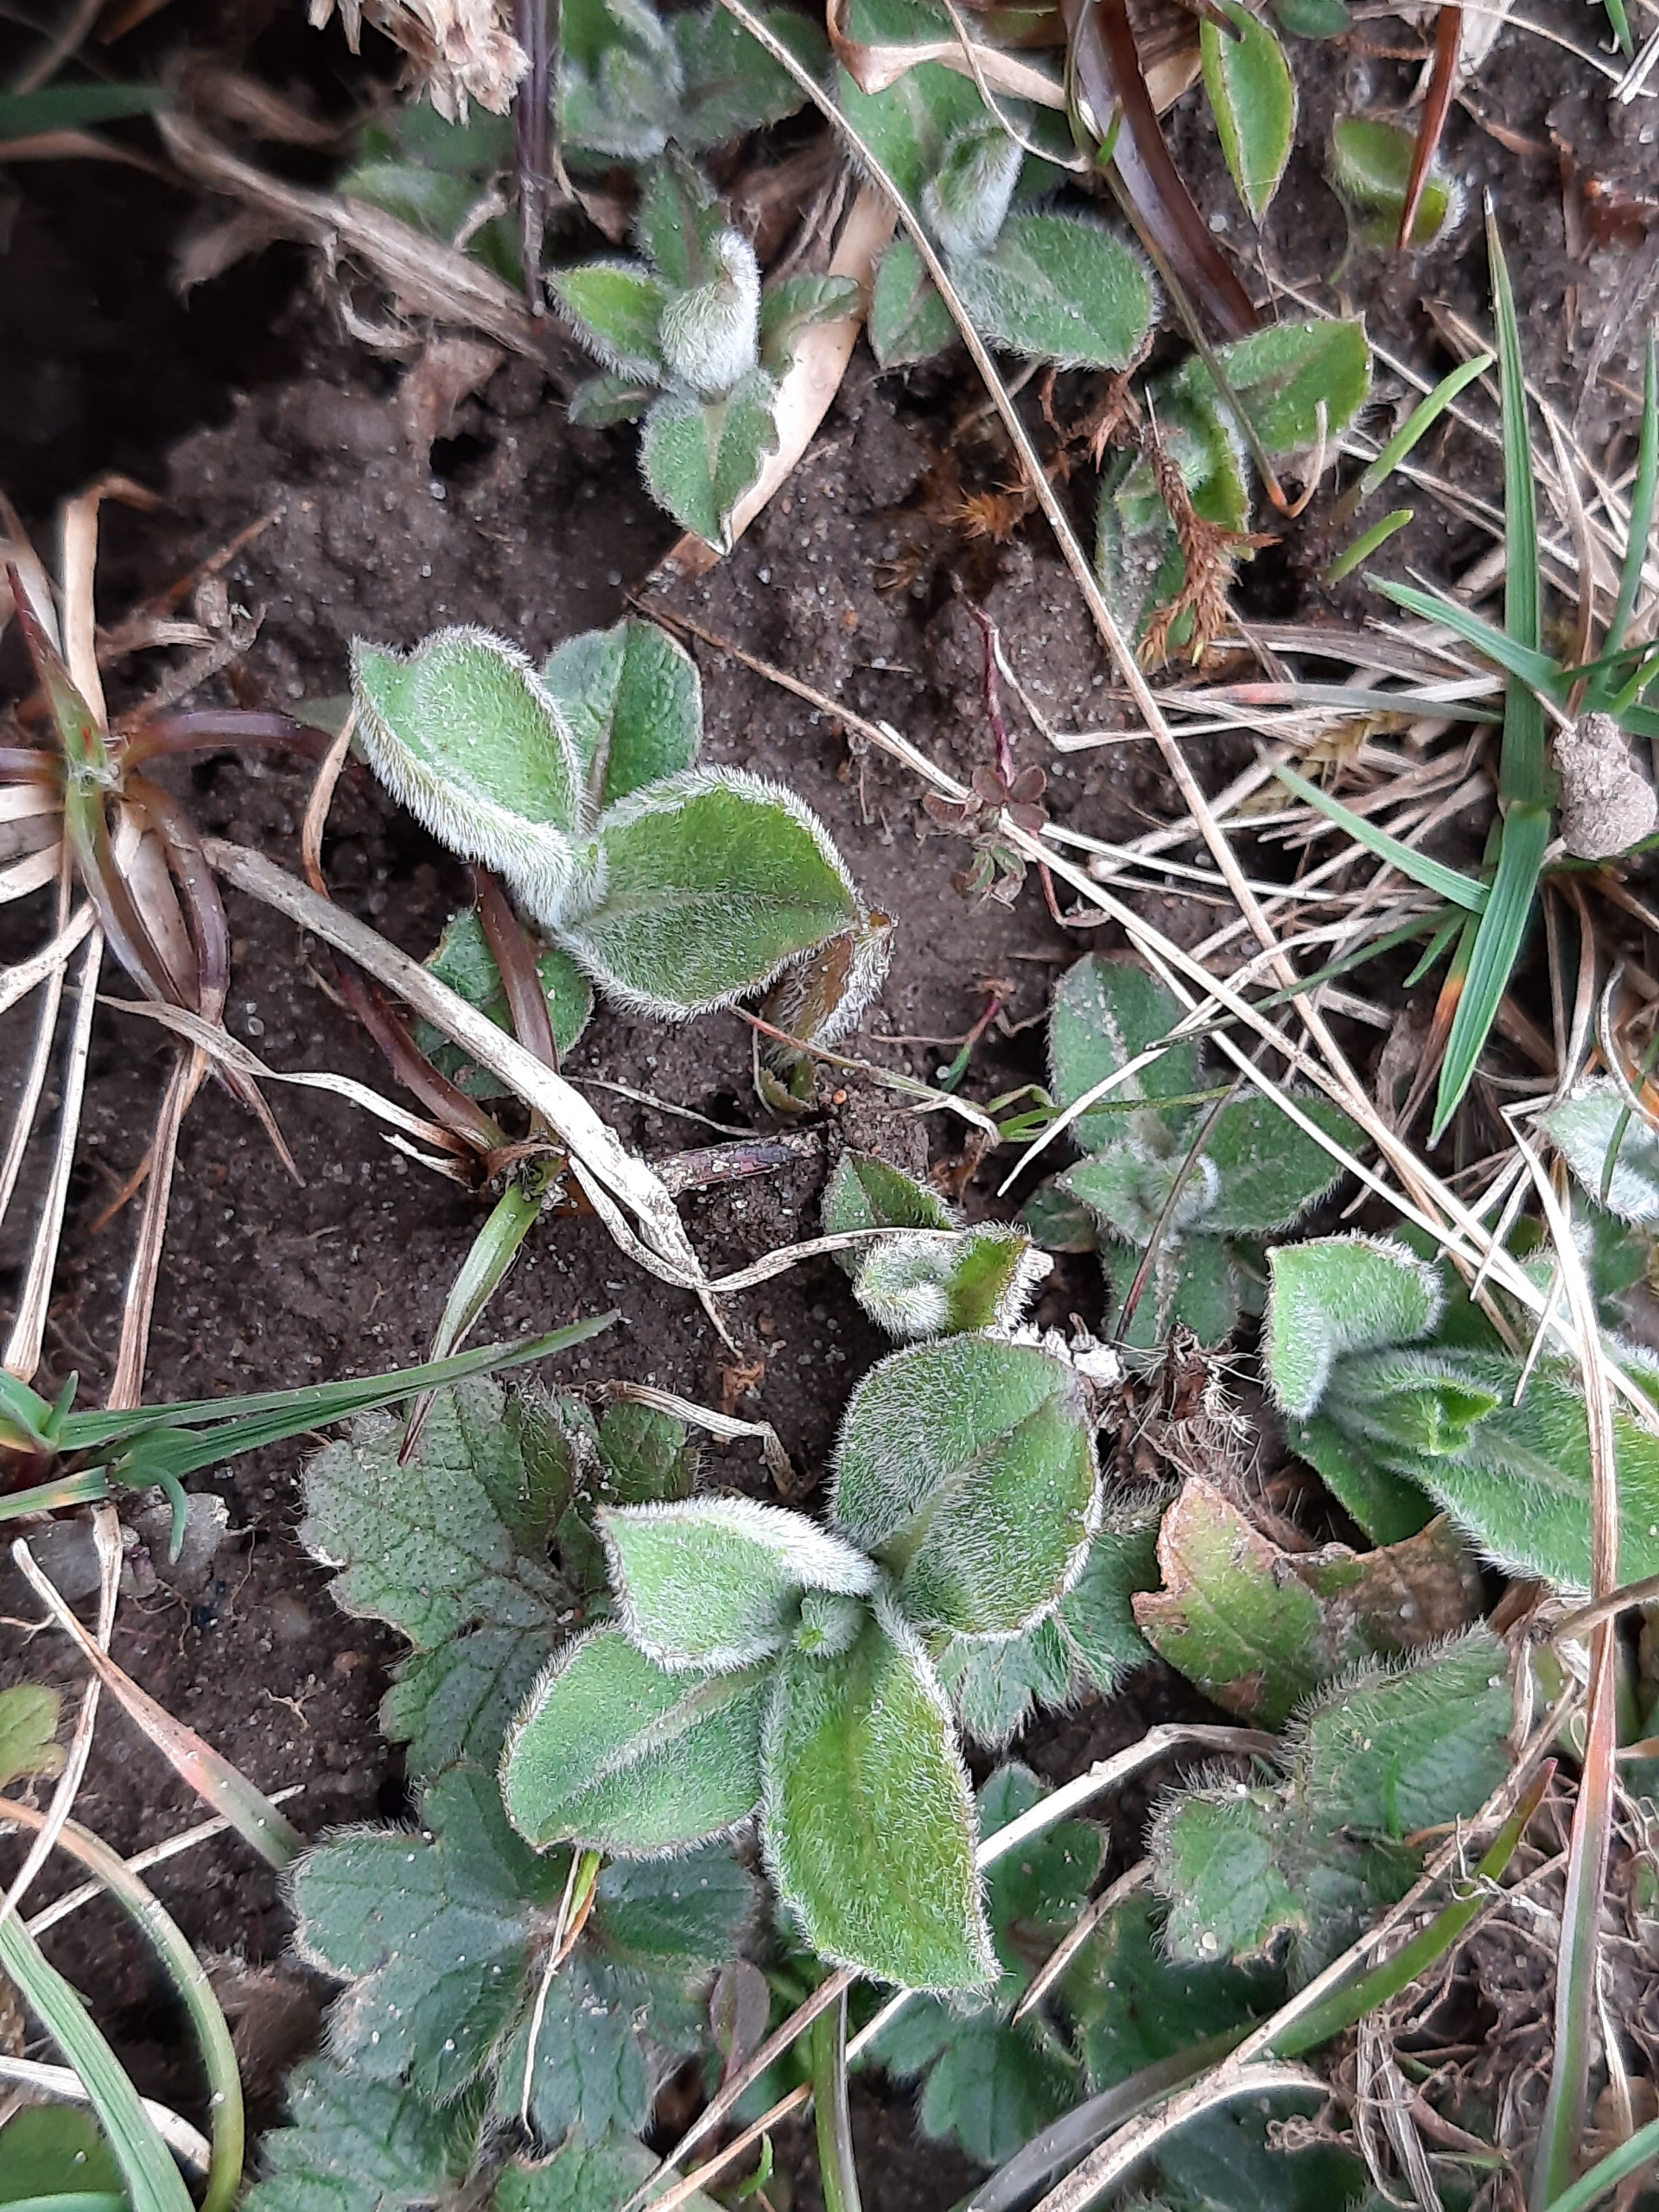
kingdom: Plantae
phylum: Tracheophyta
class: Magnoliopsida
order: Asterales
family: Asteraceae
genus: Centaurea
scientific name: Centaurea jacea
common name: Almindelig knopurt
